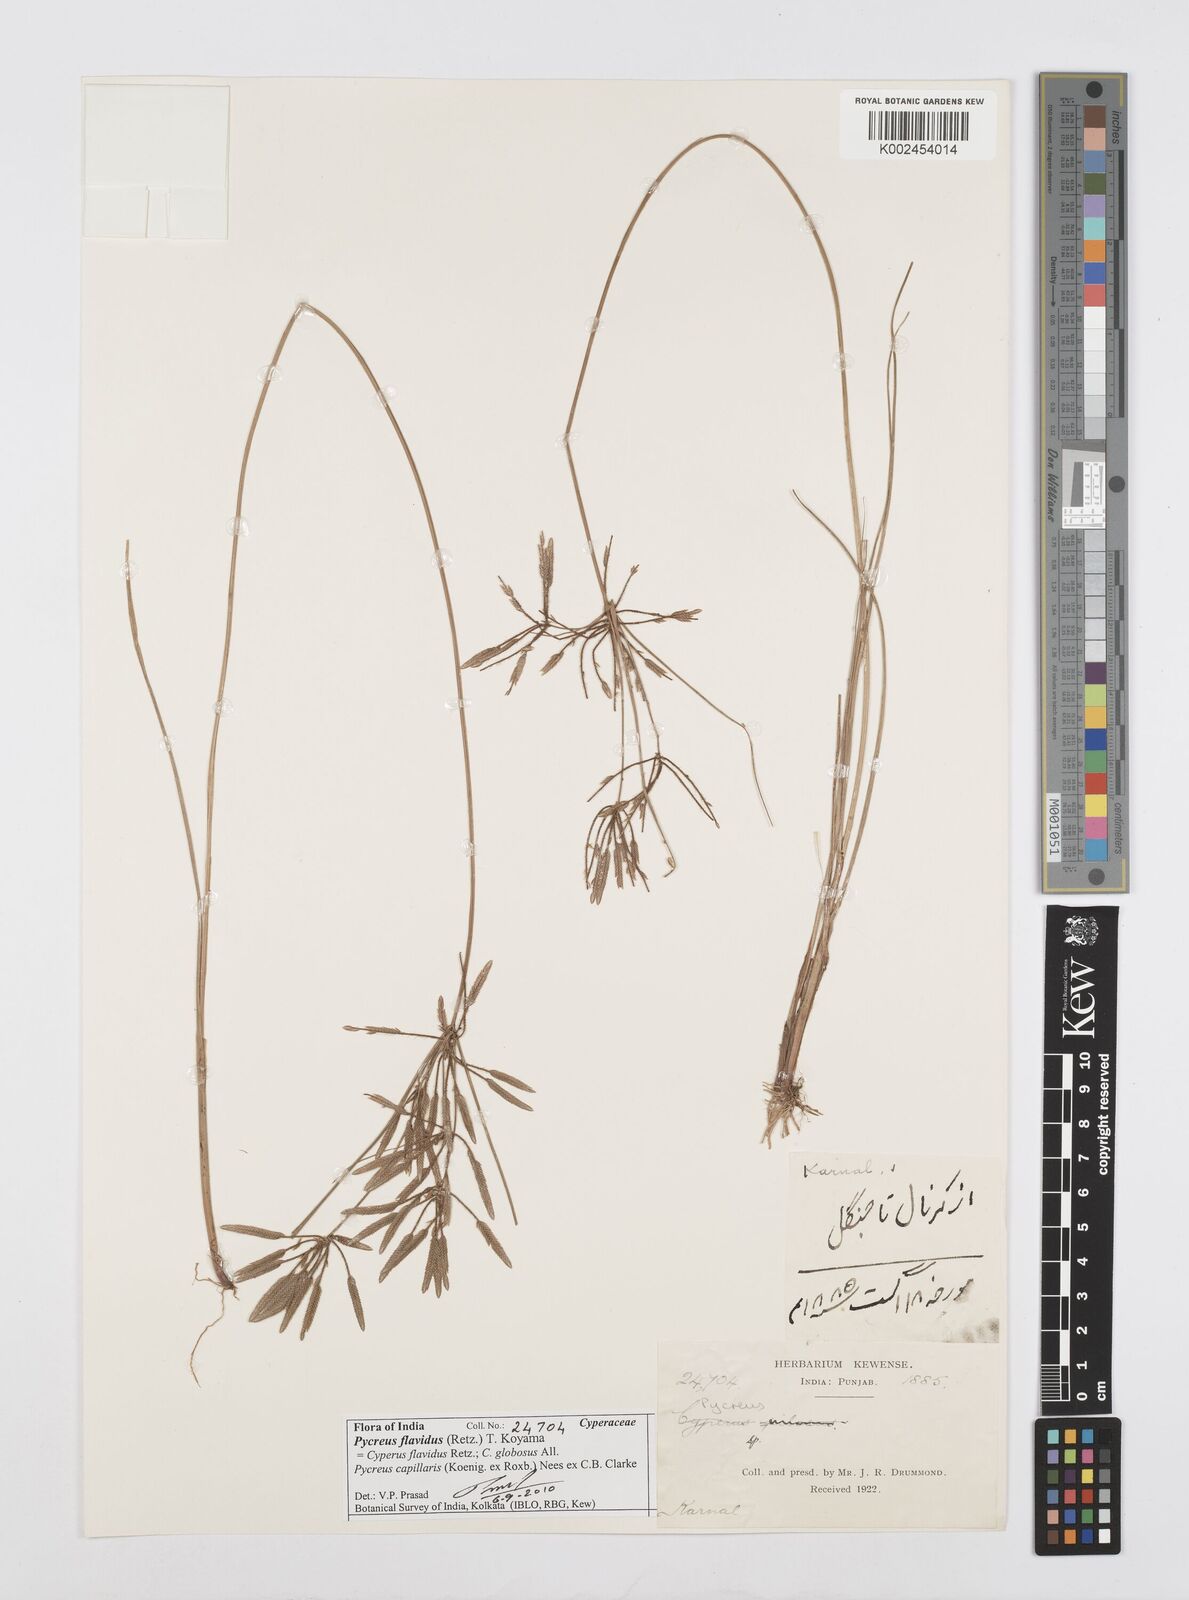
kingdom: Plantae
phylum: Tracheophyta
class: Liliopsida
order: Poales
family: Cyperaceae
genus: Cyperus
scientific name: Cyperus flavidus
